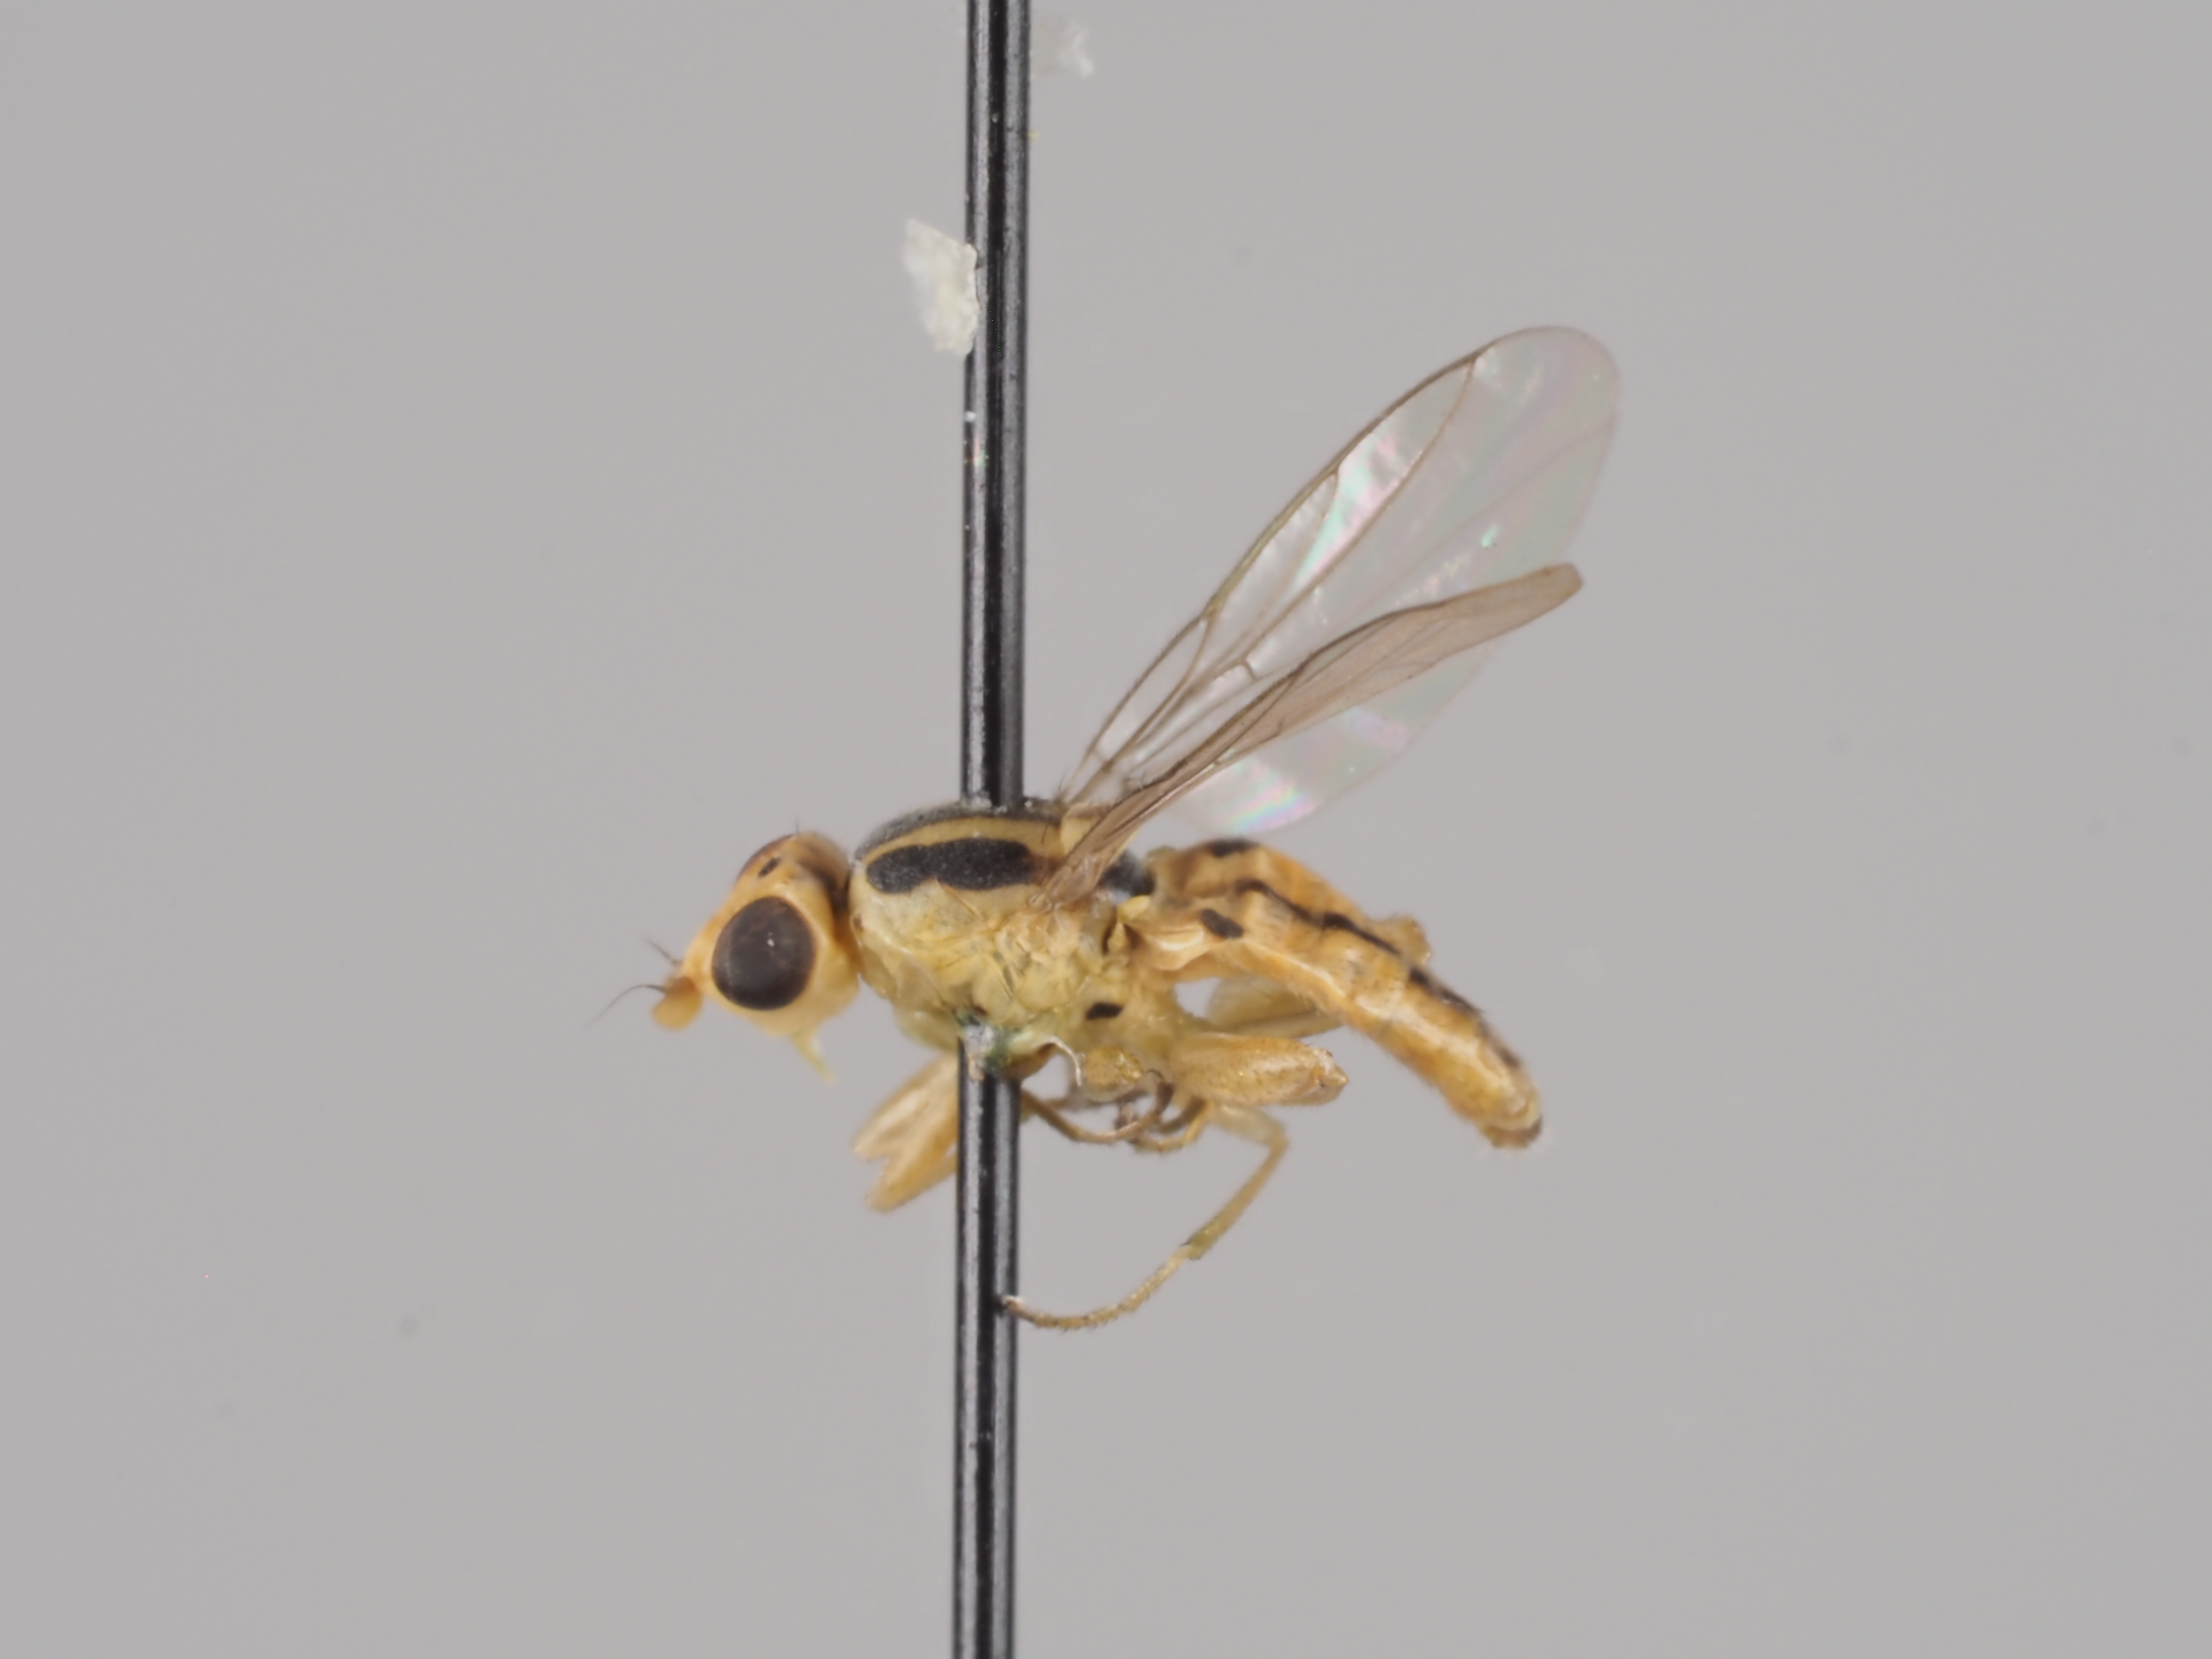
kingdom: Animalia
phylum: Arthropoda
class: Insecta
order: Diptera
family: Chloropidae
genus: Meromyza
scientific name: Meromyza ingrica
